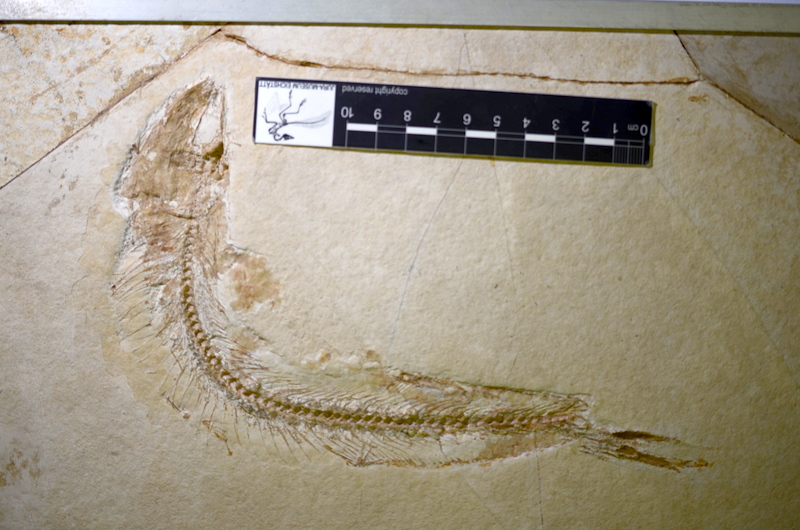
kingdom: Animalia
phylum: Chordata
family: Allothrissopidae
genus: Allothrissops
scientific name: Allothrissops mesogaster
